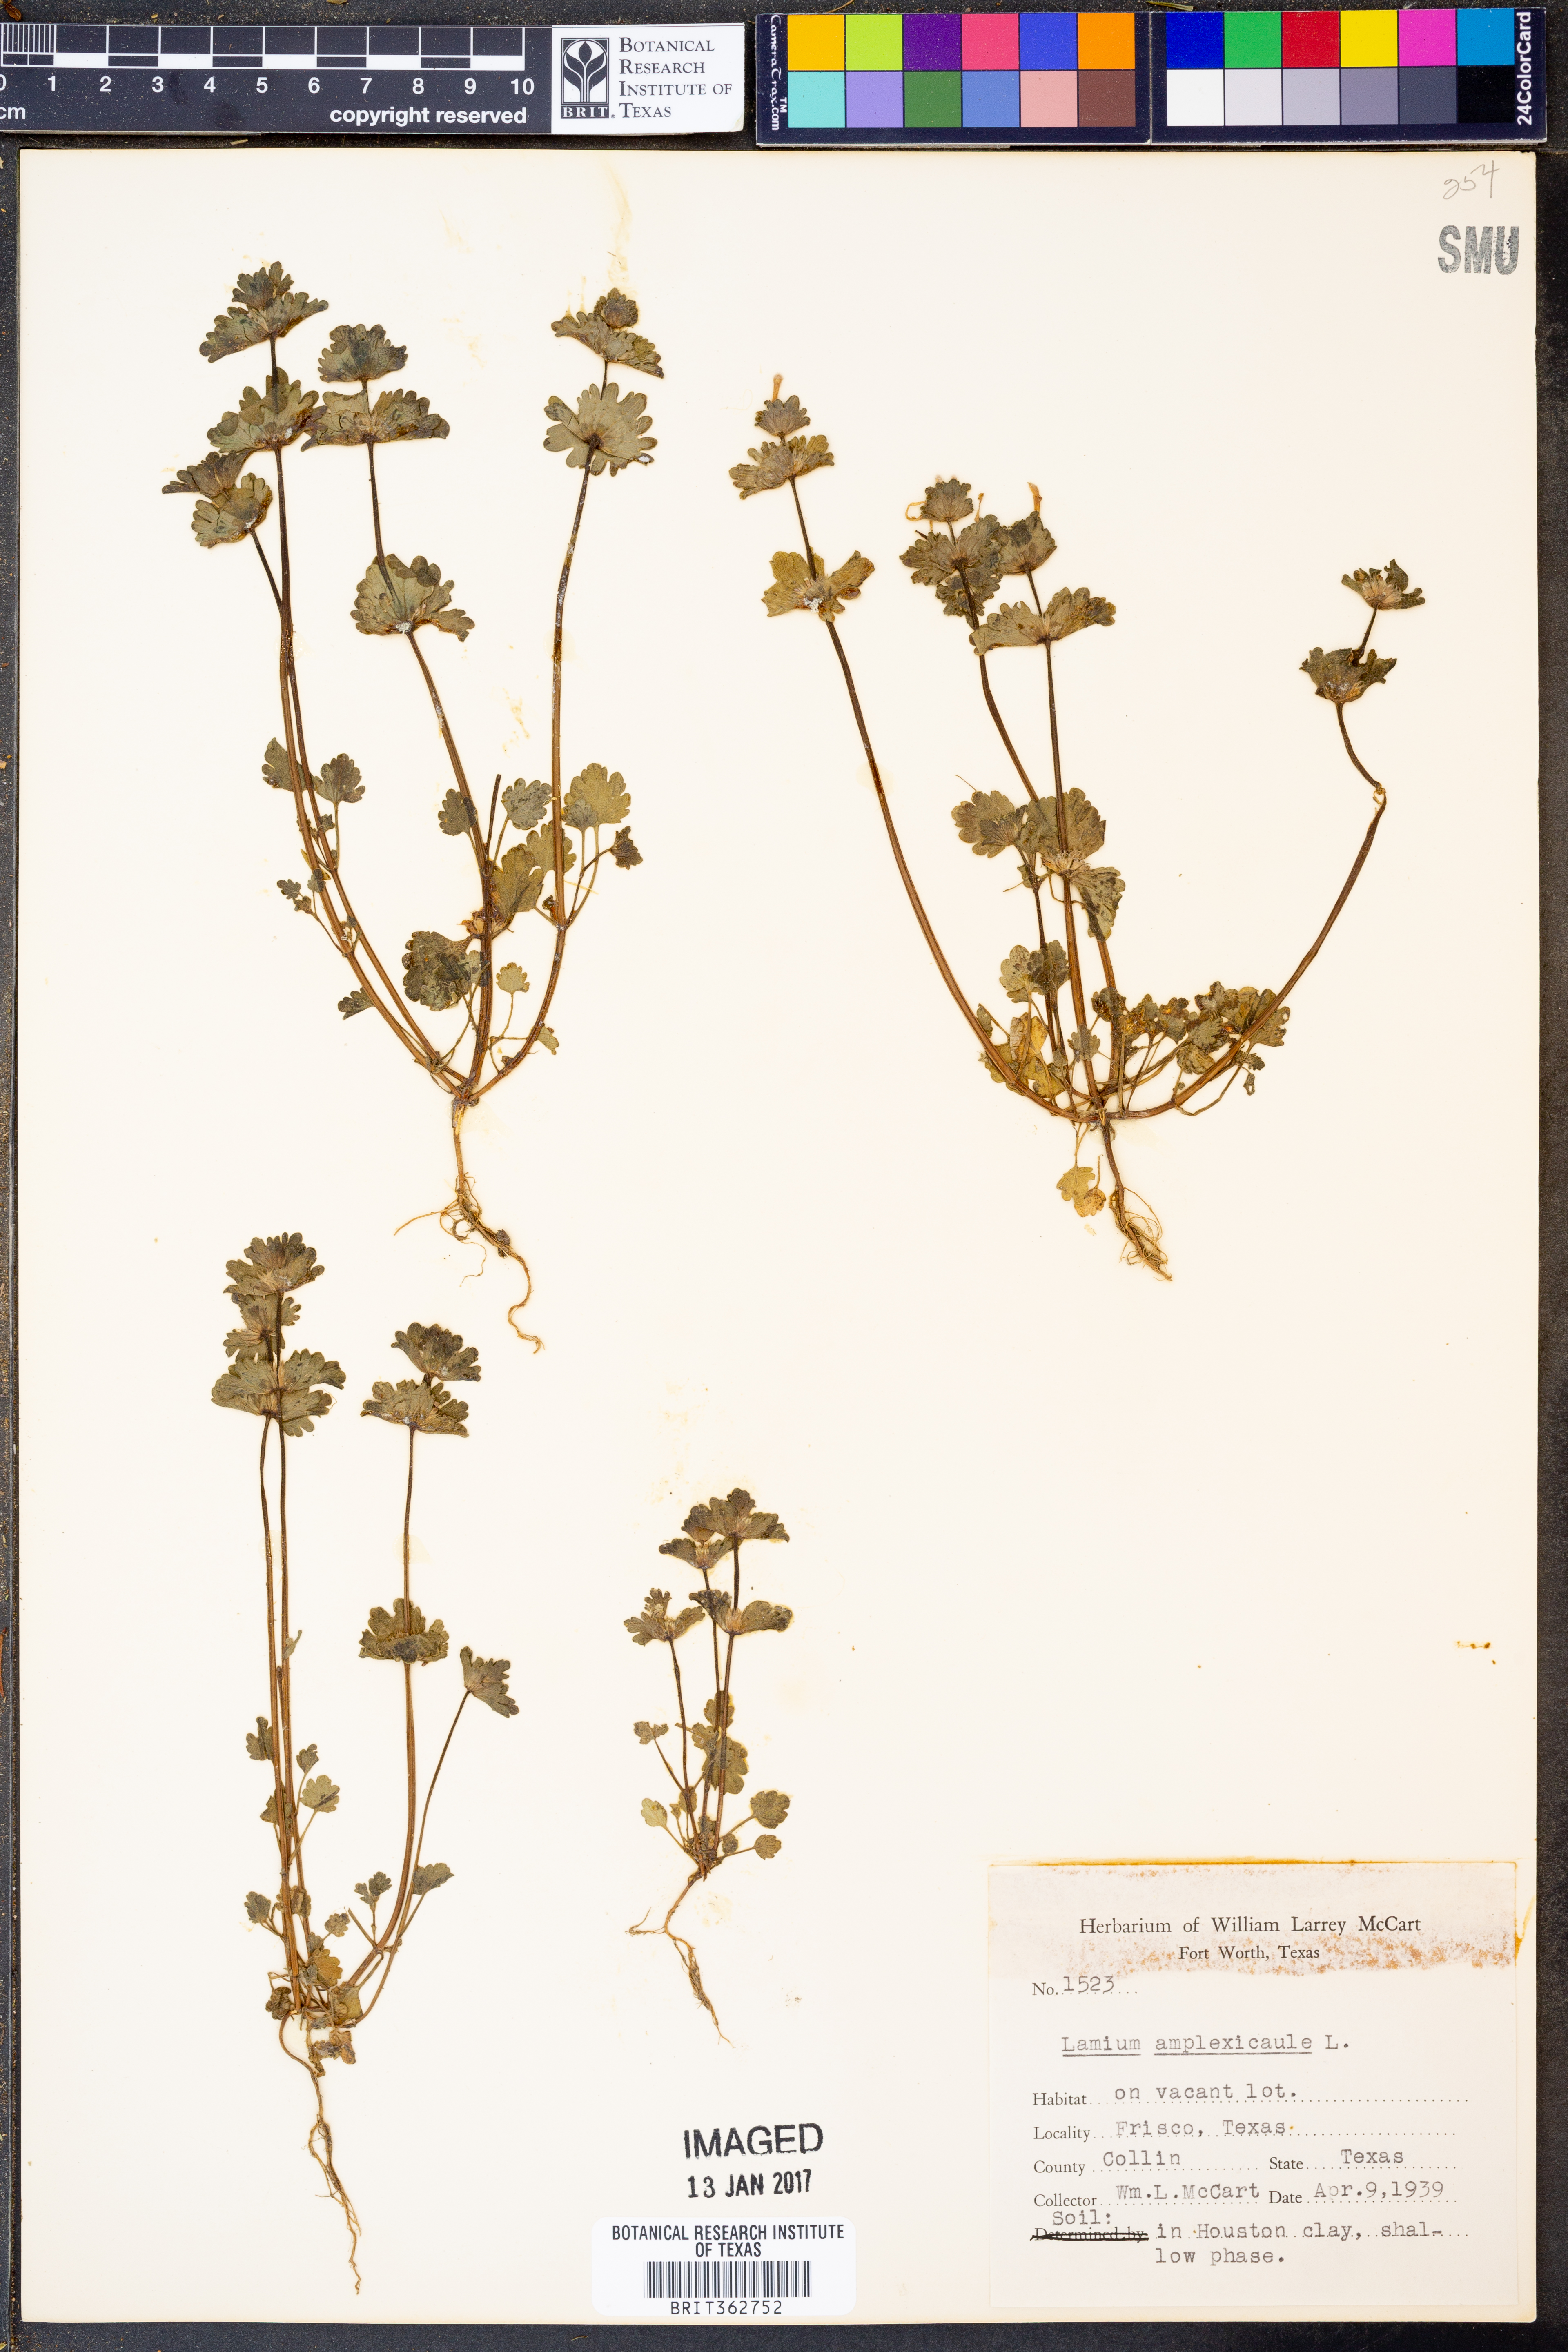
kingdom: Plantae
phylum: Tracheophyta
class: Magnoliopsida
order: Lamiales
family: Lamiaceae
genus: Lamium
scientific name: Lamium amplexicaule
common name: Henbit dead-nettle
